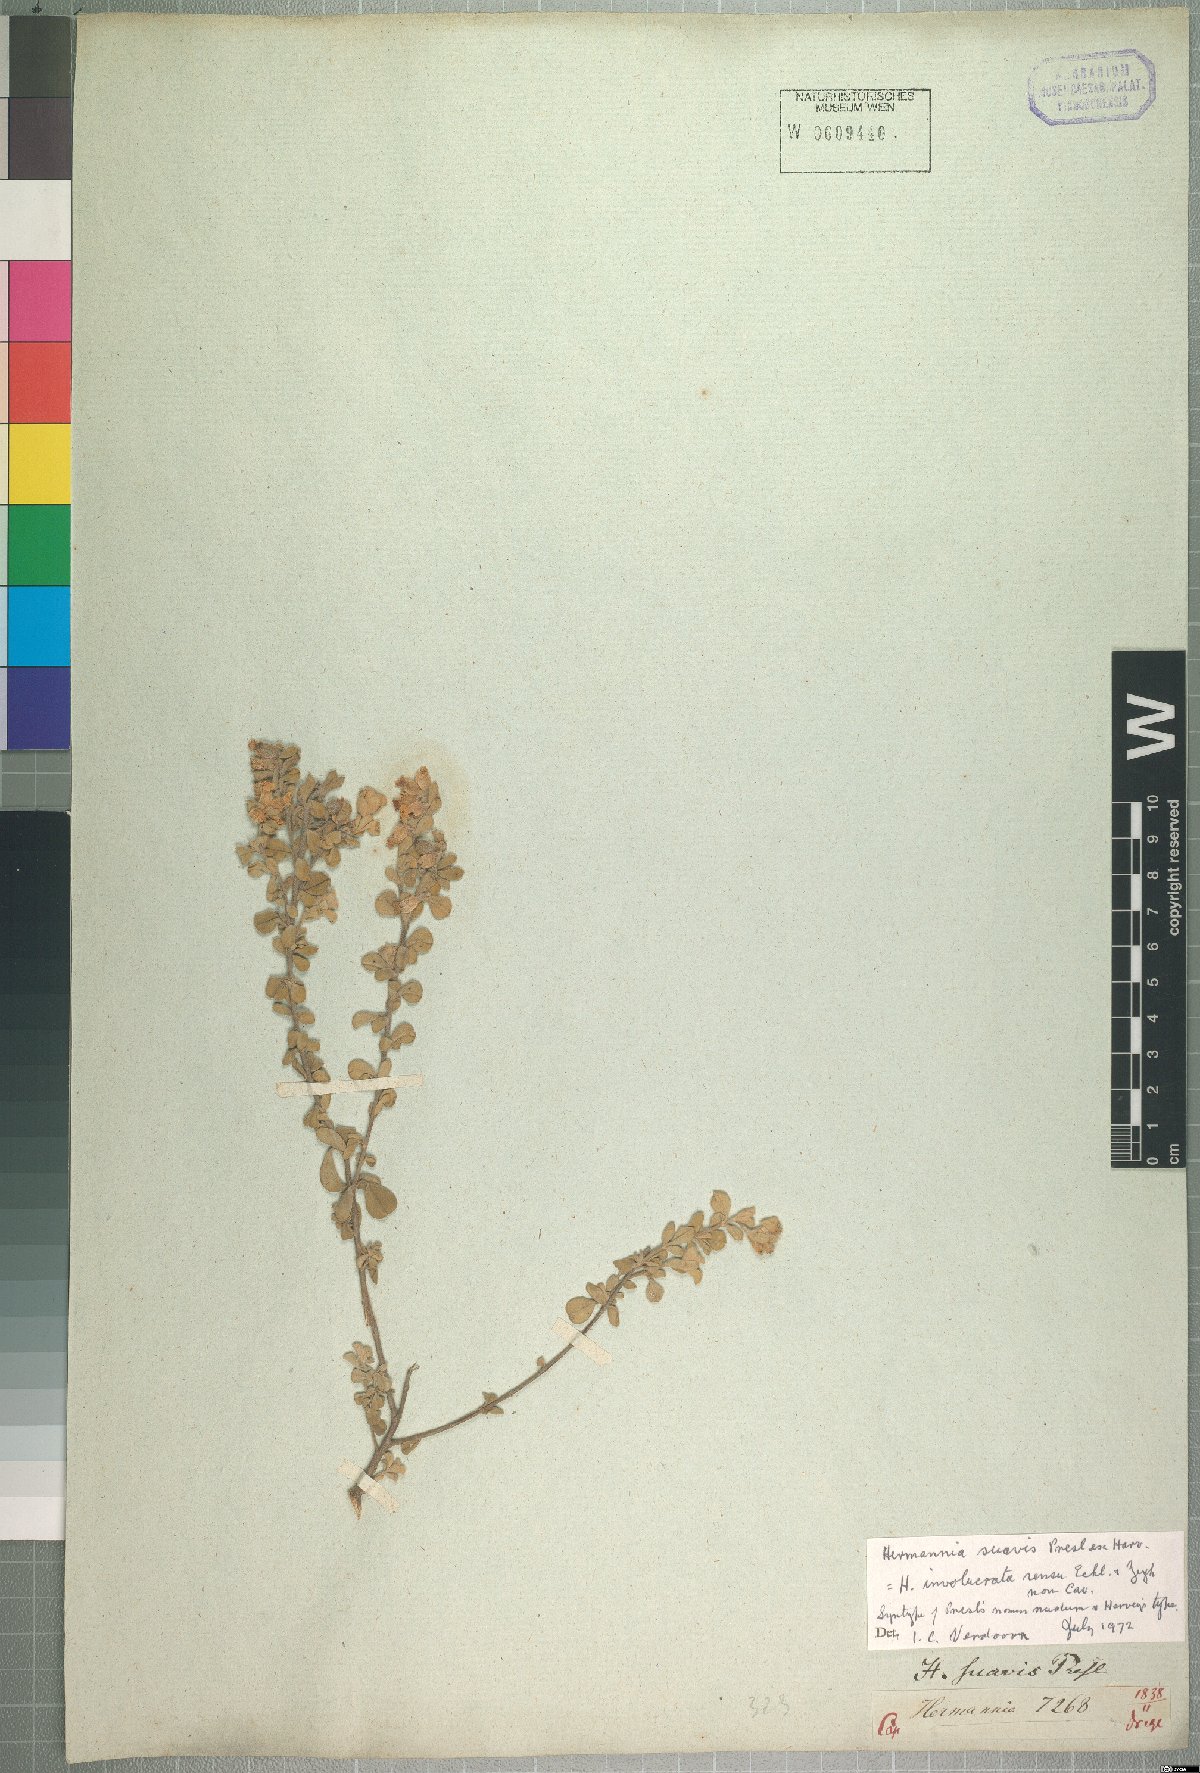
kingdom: Plantae
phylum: Tracheophyta
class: Magnoliopsida
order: Malvales
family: Malvaceae
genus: Hermannia
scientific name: Hermannia suavis
